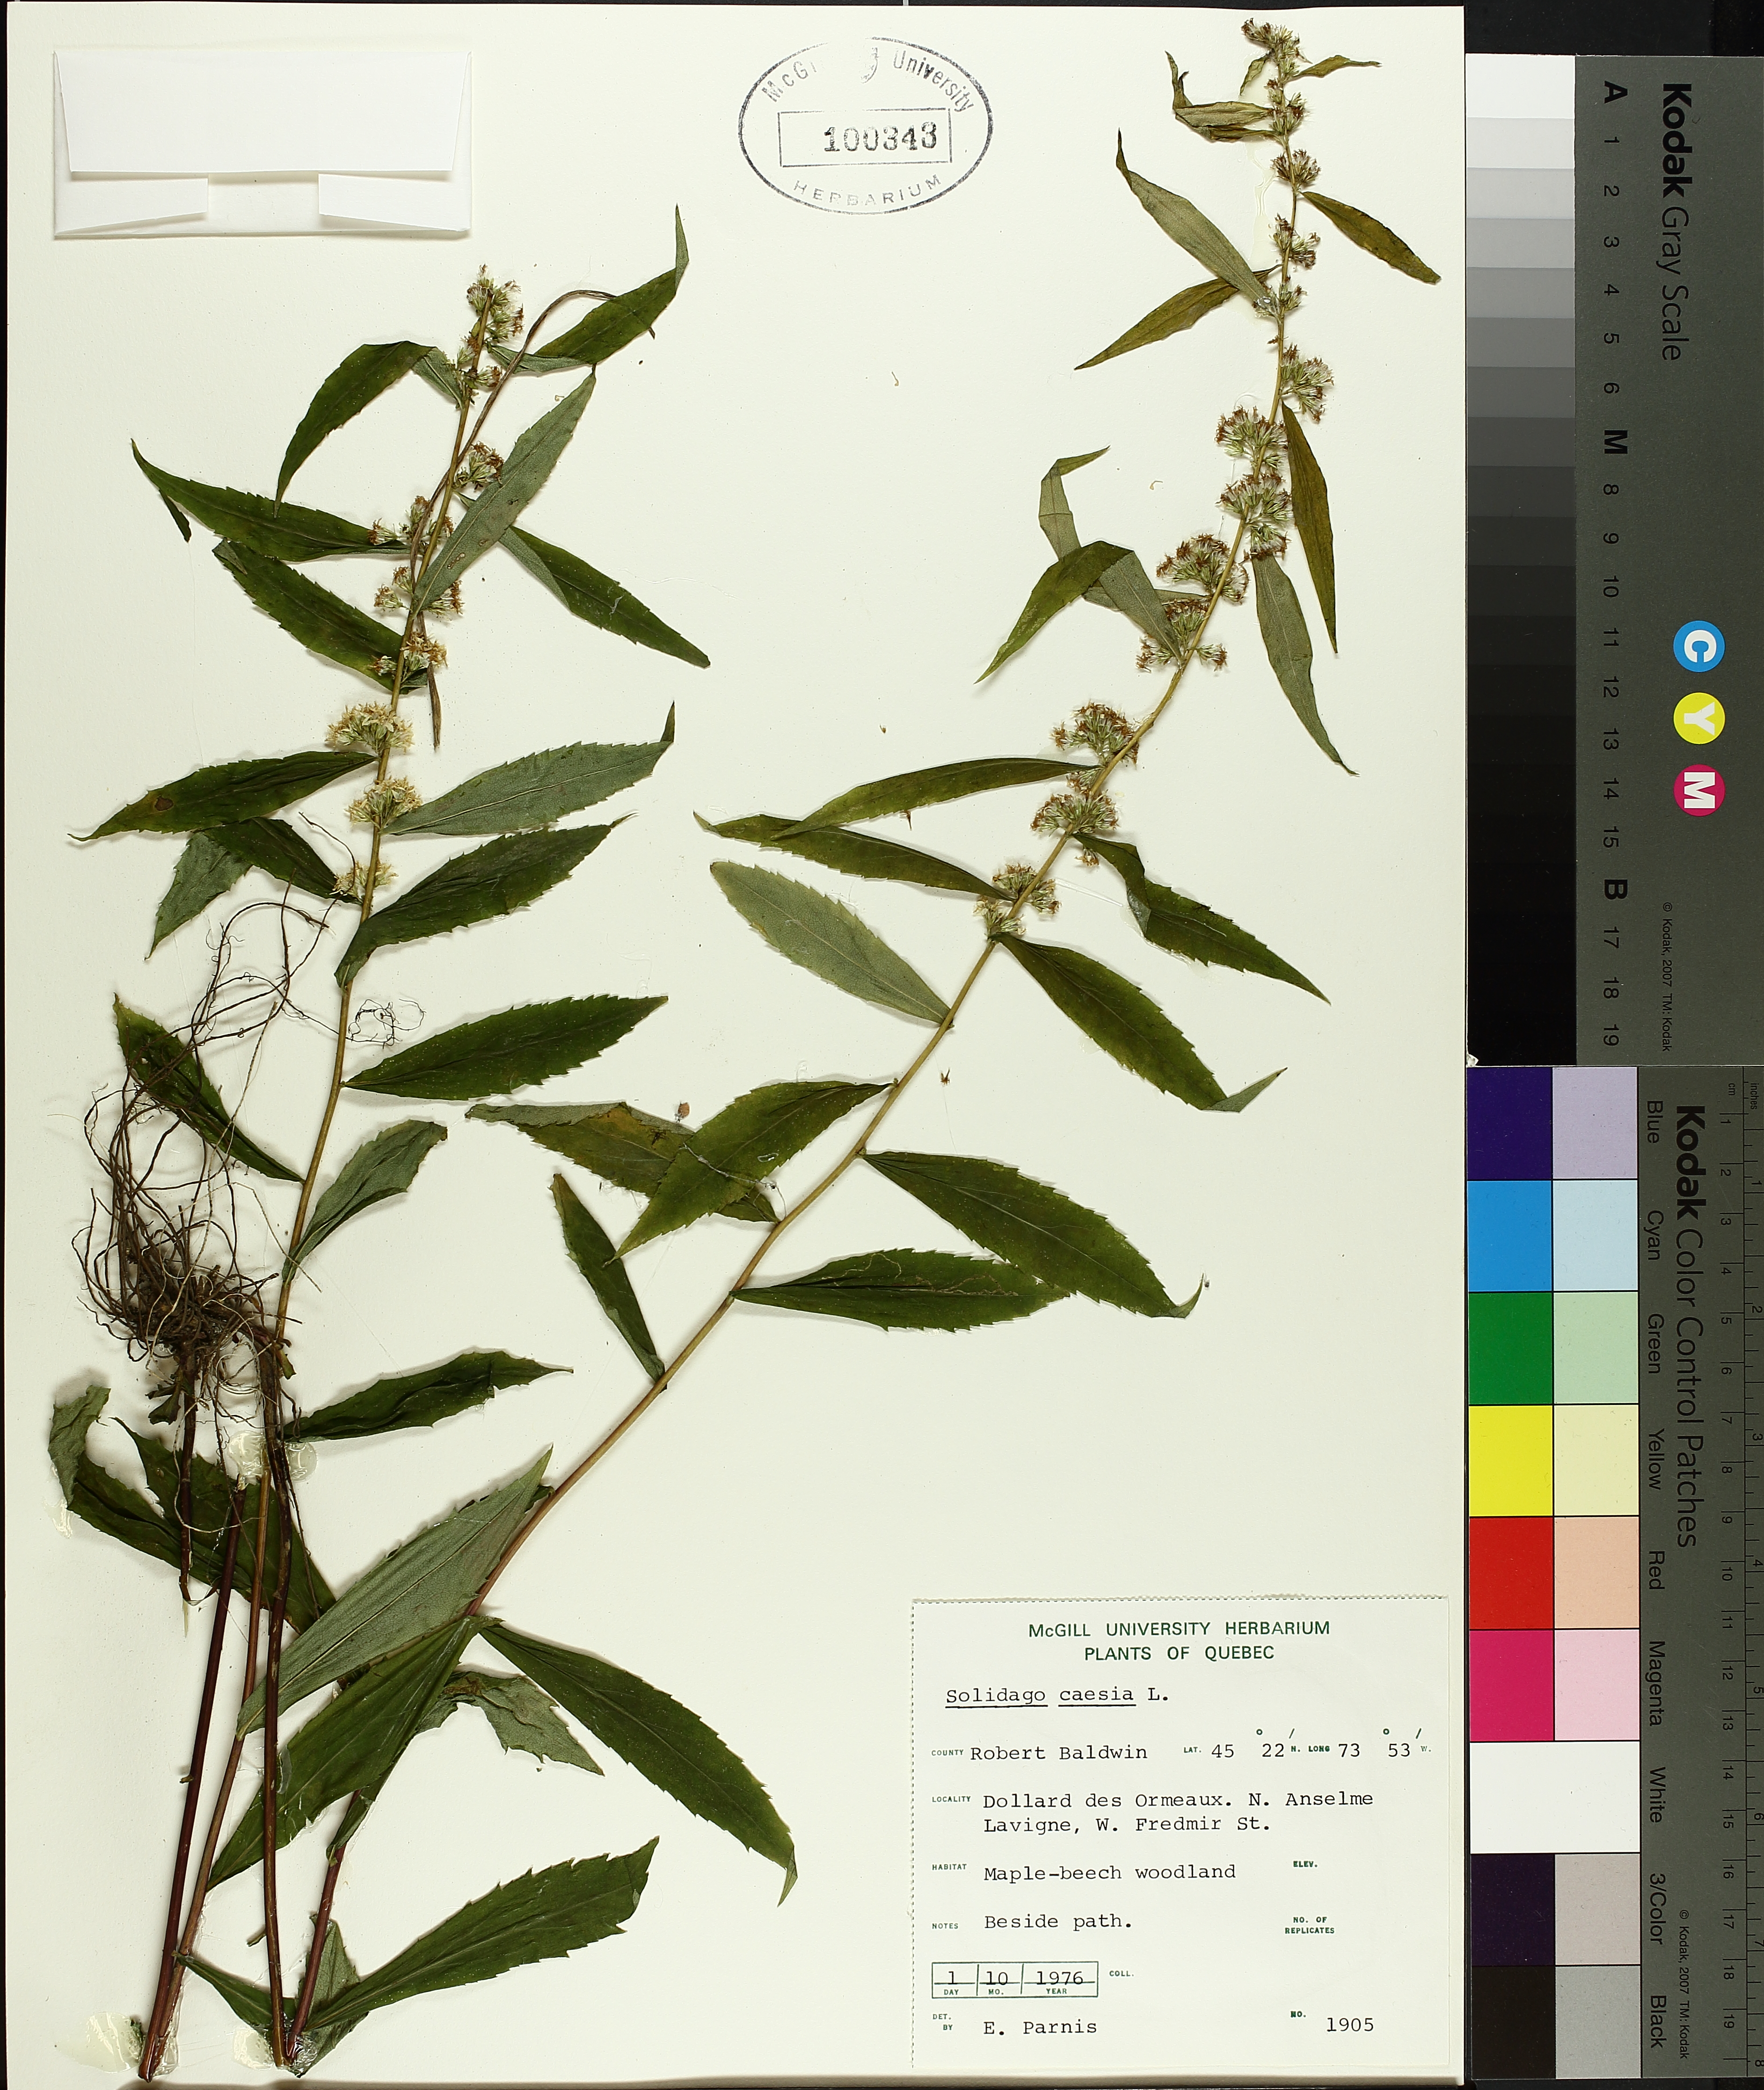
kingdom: Plantae
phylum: Tracheophyta
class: Liliopsida
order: Poales
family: Cyperaceae
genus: Scirpus
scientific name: Scirpus atrovirens
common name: Black bulrush
